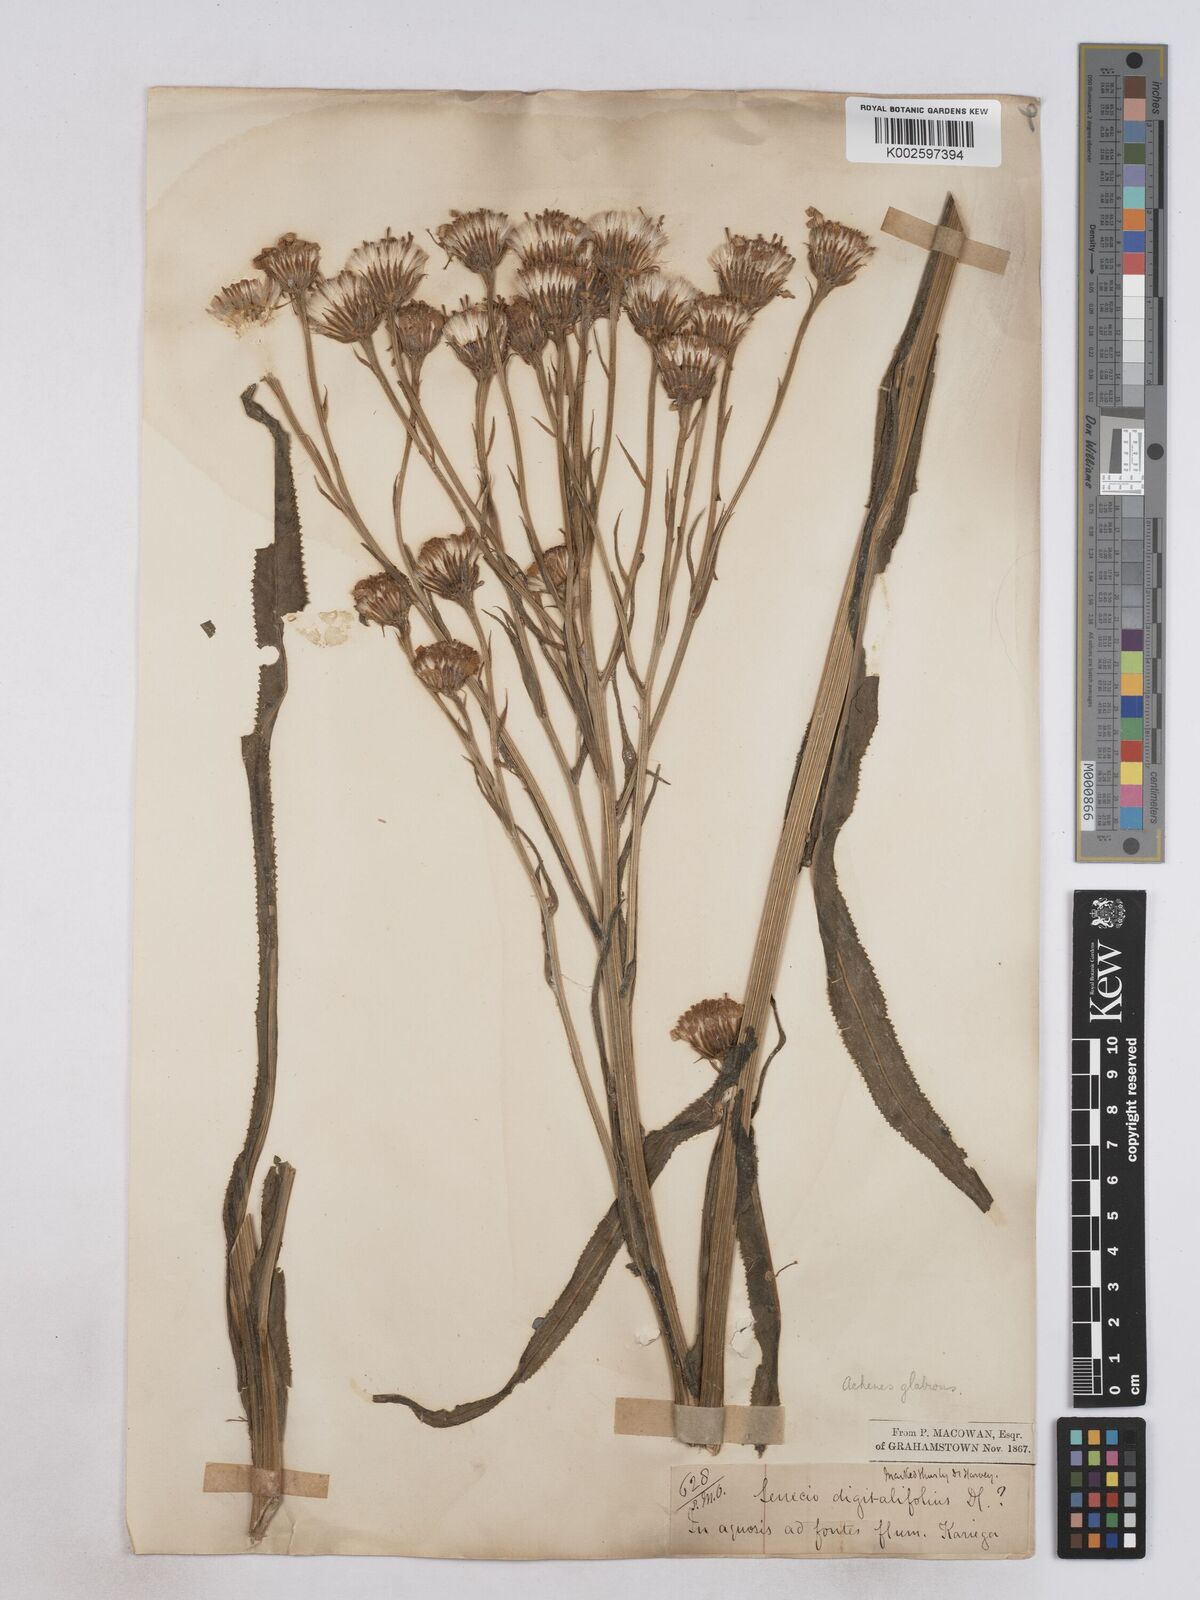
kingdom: Plantae
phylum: Tracheophyta
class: Magnoliopsida
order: Asterales
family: Asteraceae
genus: Senecio
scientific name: Senecio digitalifolius
